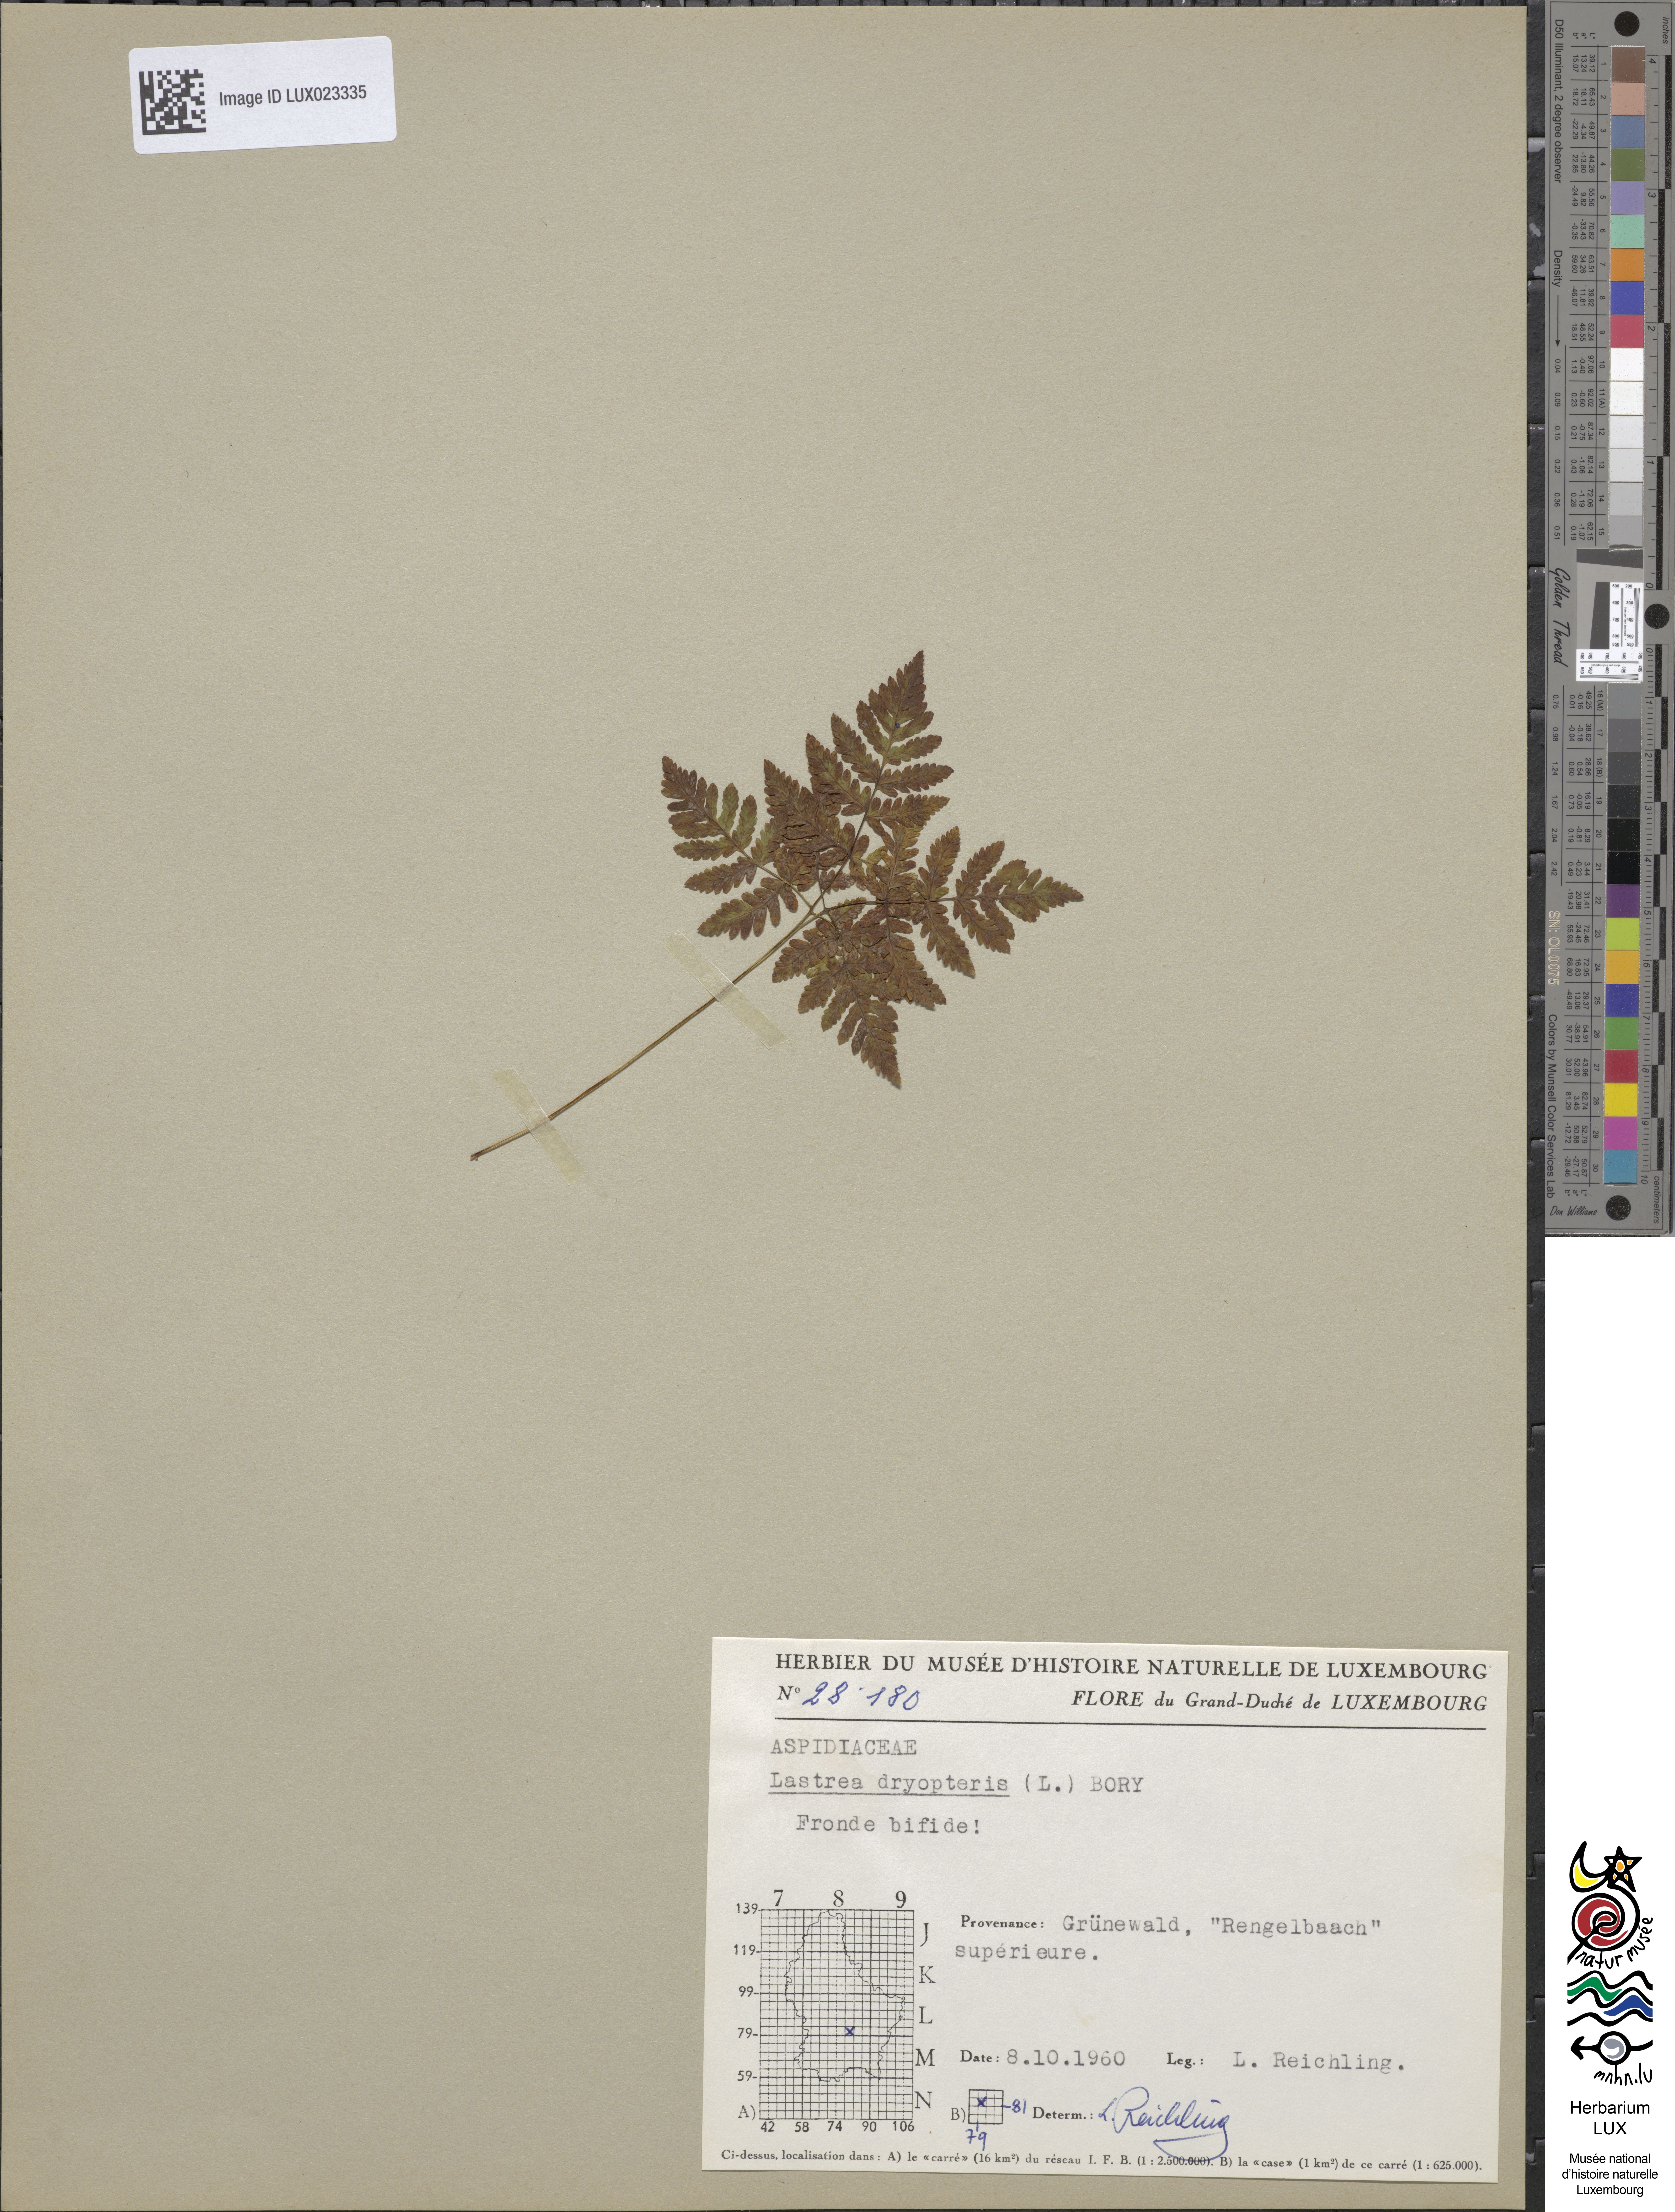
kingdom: Plantae
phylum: Tracheophyta
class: Polypodiopsida
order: Polypodiales
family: Cystopteridaceae
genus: Gymnocarpium
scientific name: Gymnocarpium dryopteris
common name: Oak fern
